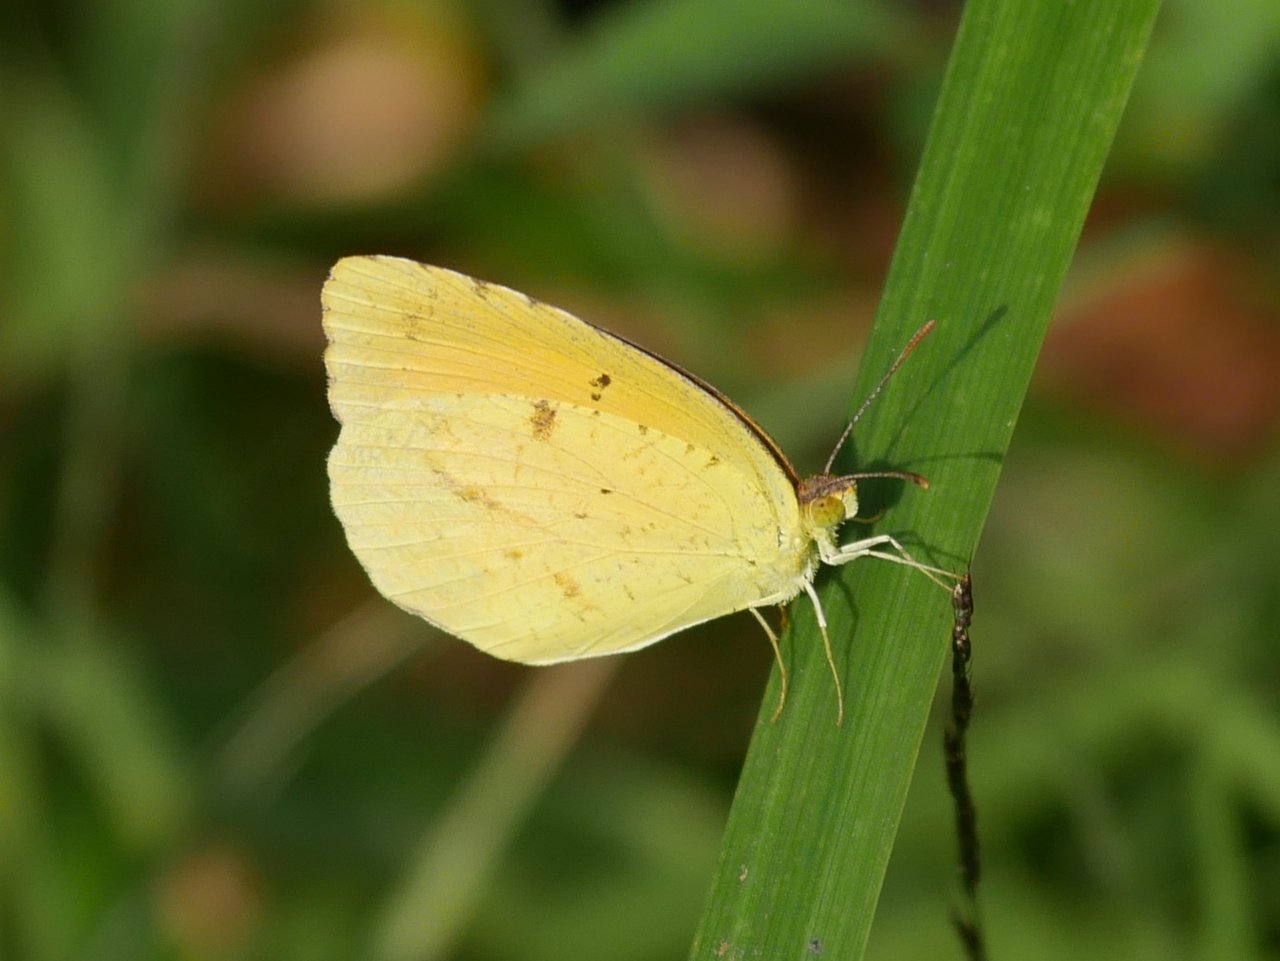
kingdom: Animalia
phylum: Arthropoda
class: Insecta
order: Lepidoptera
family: Pieridae
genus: Abaeis
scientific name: Abaeis nicippe
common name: Sleepy Orange
